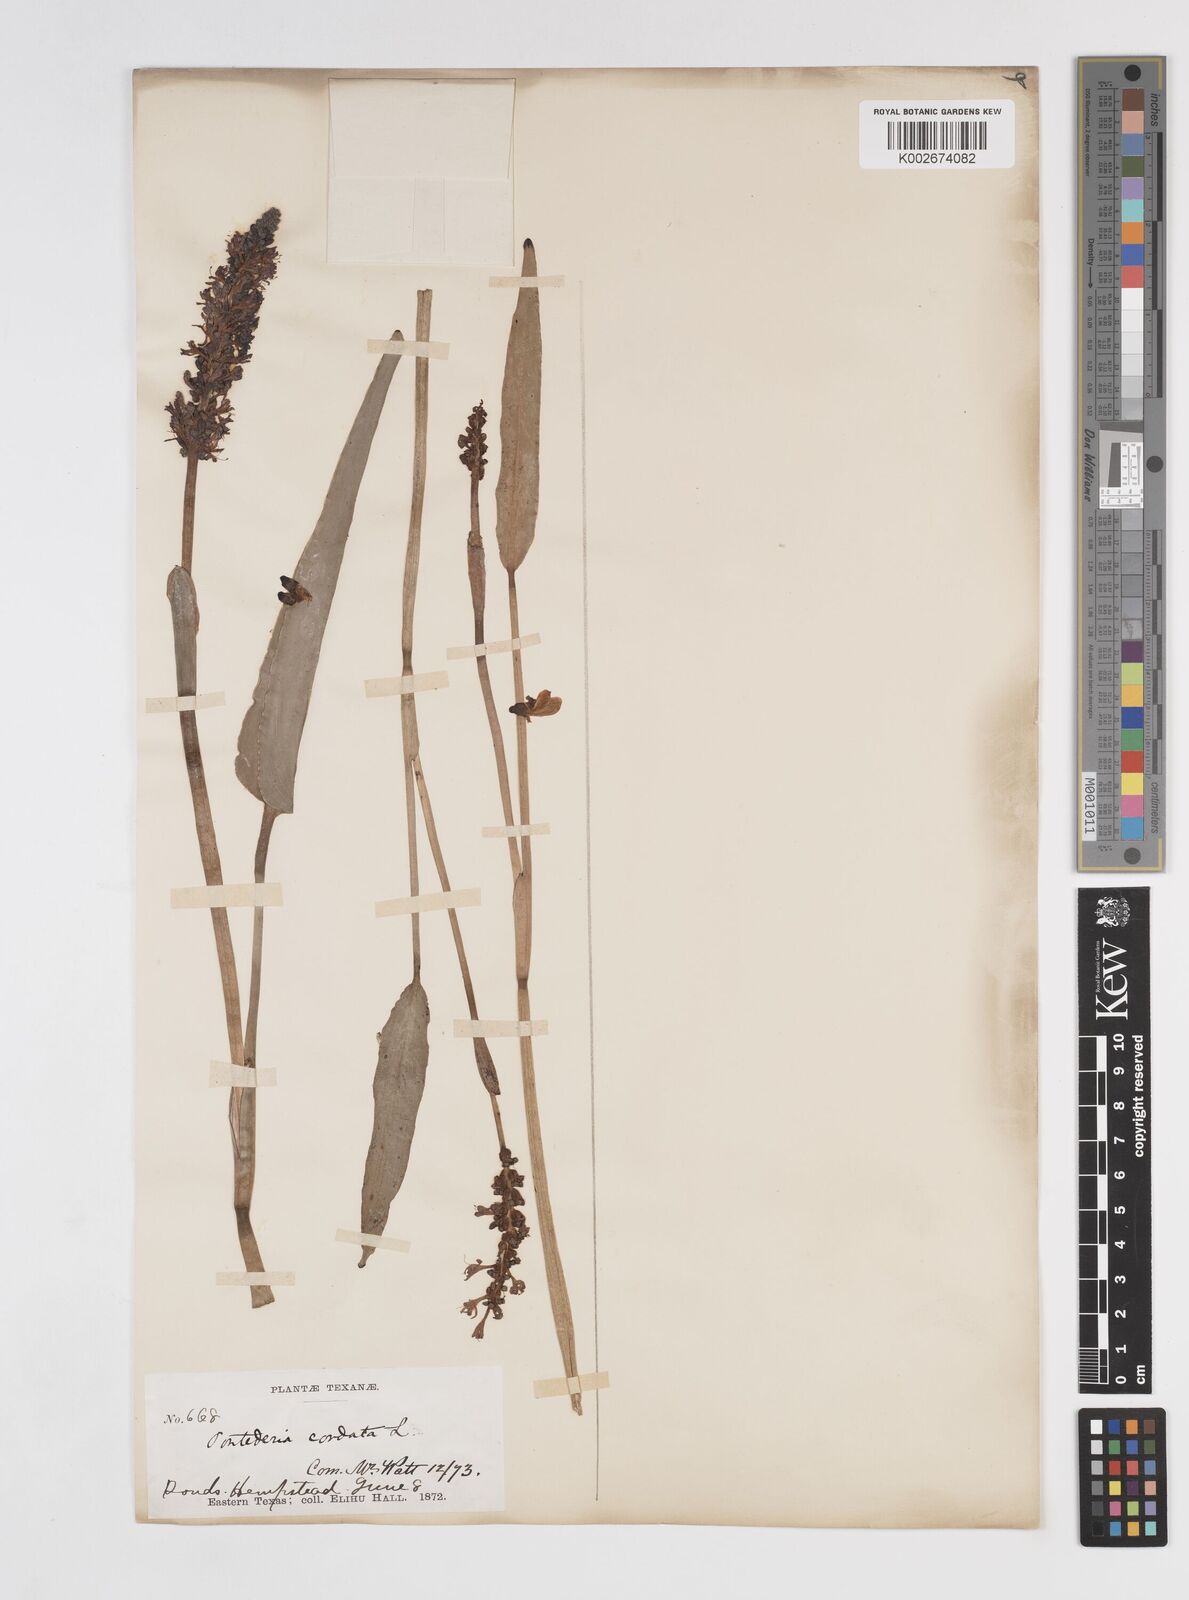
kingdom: Plantae
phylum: Tracheophyta
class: Liliopsida
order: Commelinales
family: Pontederiaceae
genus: Pontederia
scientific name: Pontederia cordata
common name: Pickerelweed
